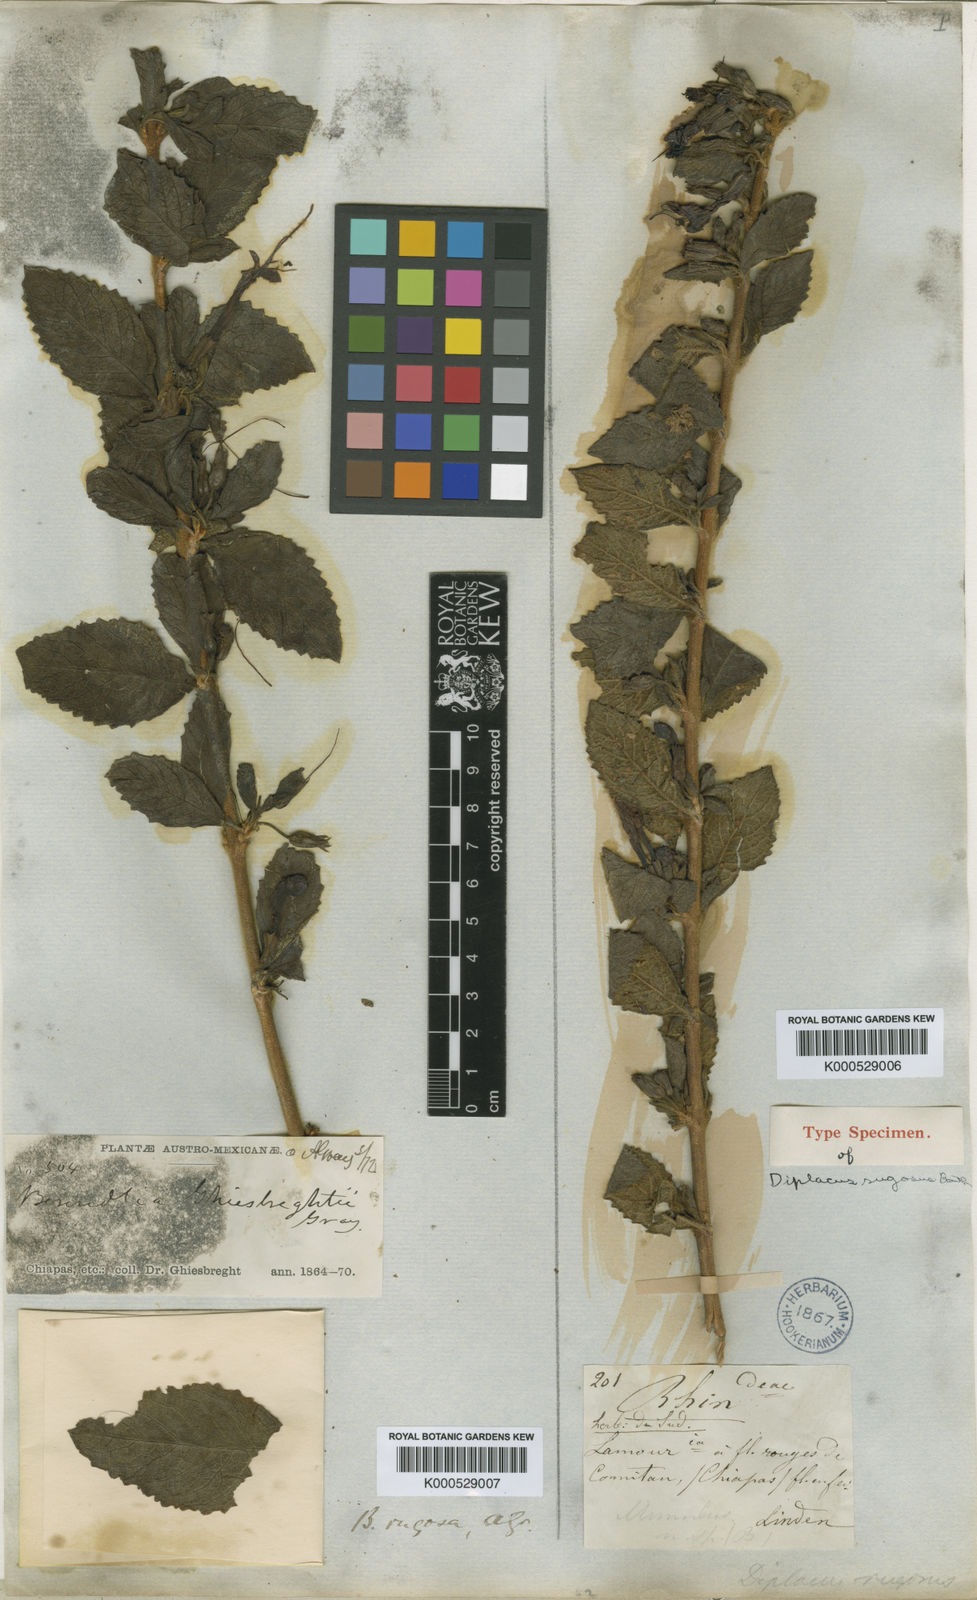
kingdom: Plantae
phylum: Tracheophyta
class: Magnoliopsida
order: Lamiales
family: Phrymaceae
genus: Hemichaena
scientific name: Hemichaena rugosa
